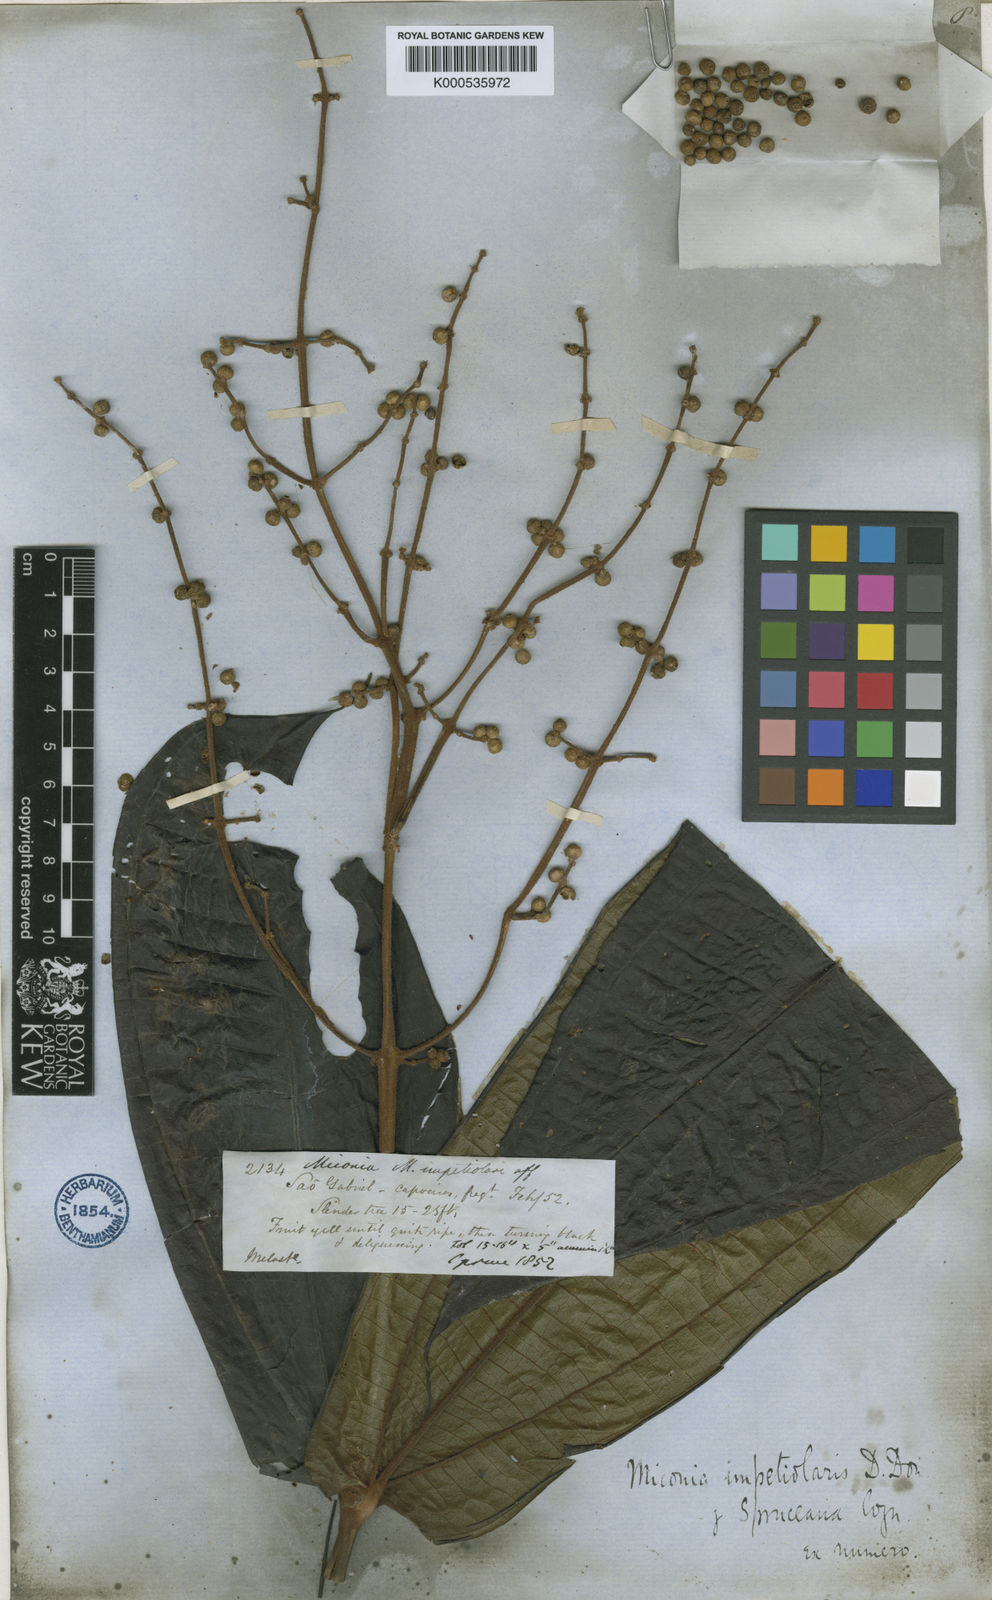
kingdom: Plantae
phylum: Tracheophyta
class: Magnoliopsida
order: Myrtales
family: Melastomataceae
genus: Miconia
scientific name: Miconia impetiolaris
